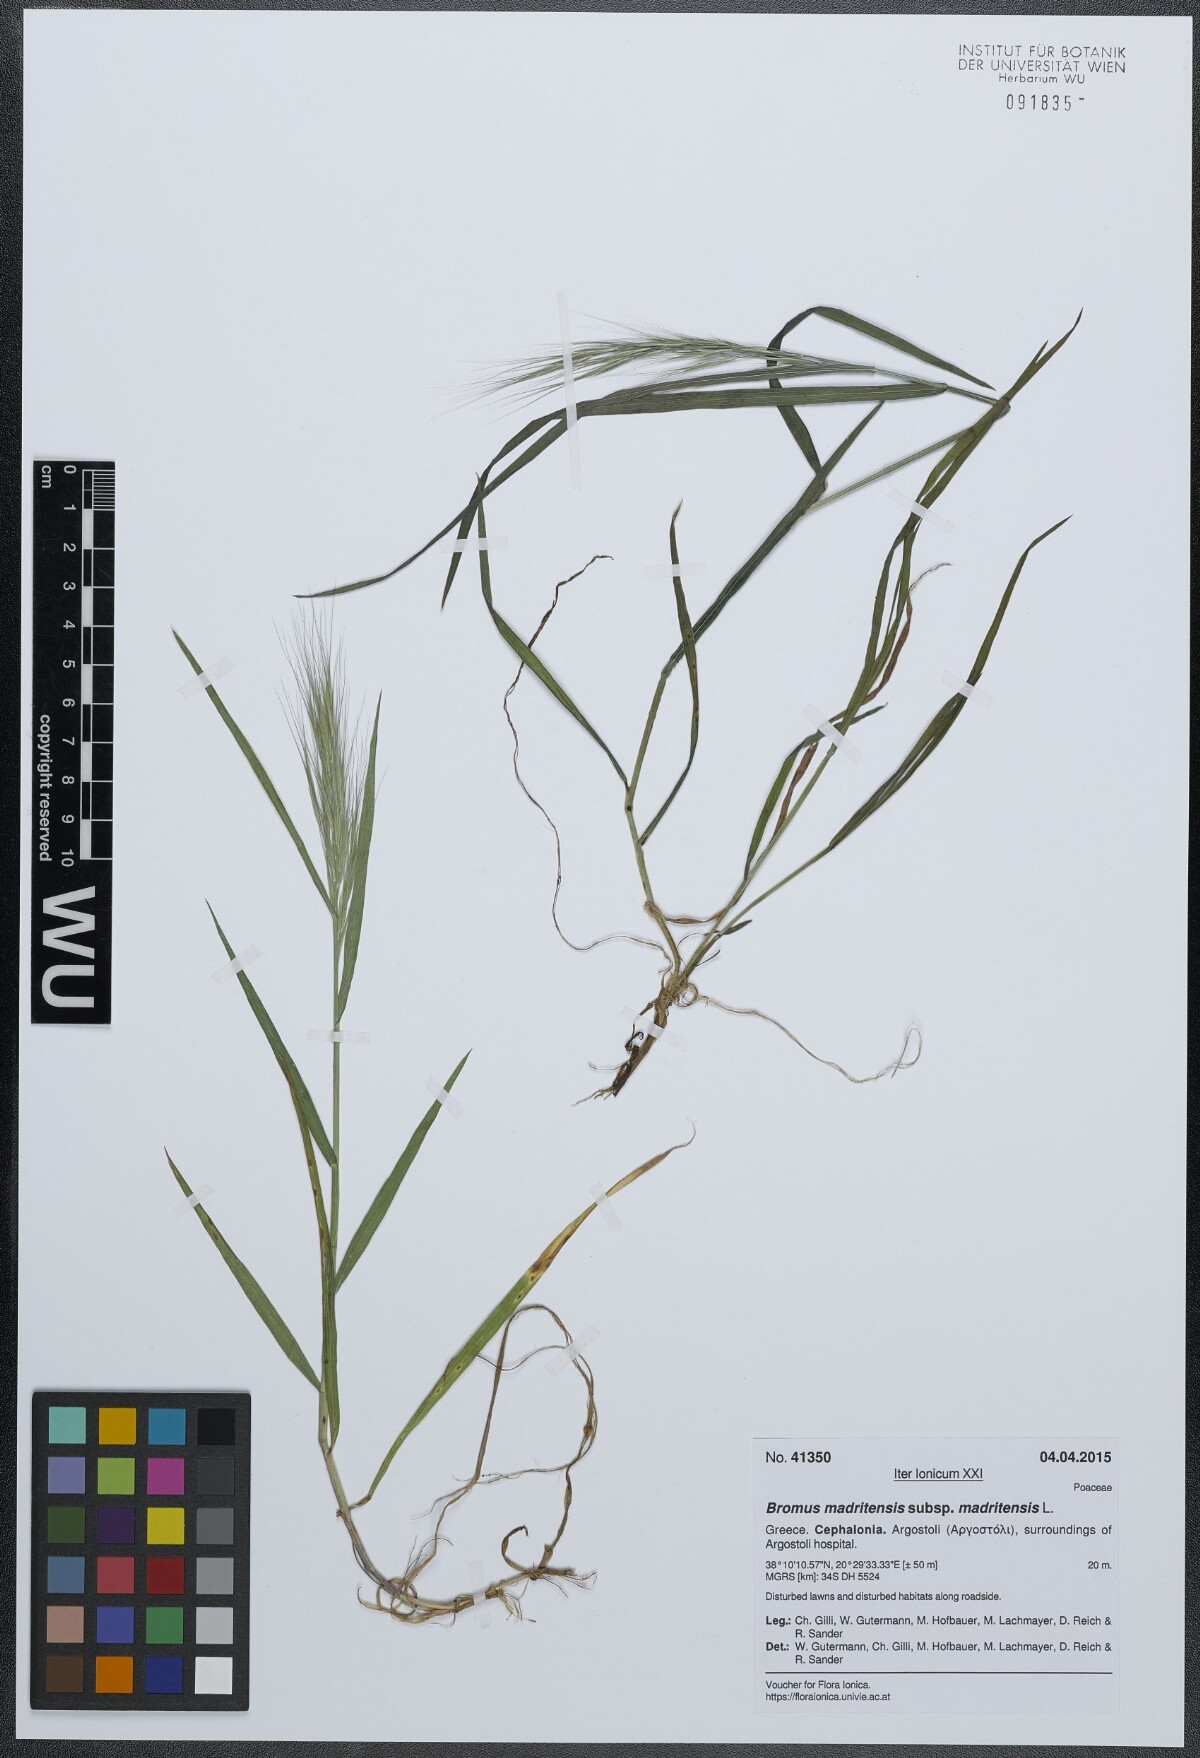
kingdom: Plantae
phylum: Tracheophyta
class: Liliopsida
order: Poales
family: Poaceae
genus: Bromus
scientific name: Bromus madritensis
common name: Compact brome
